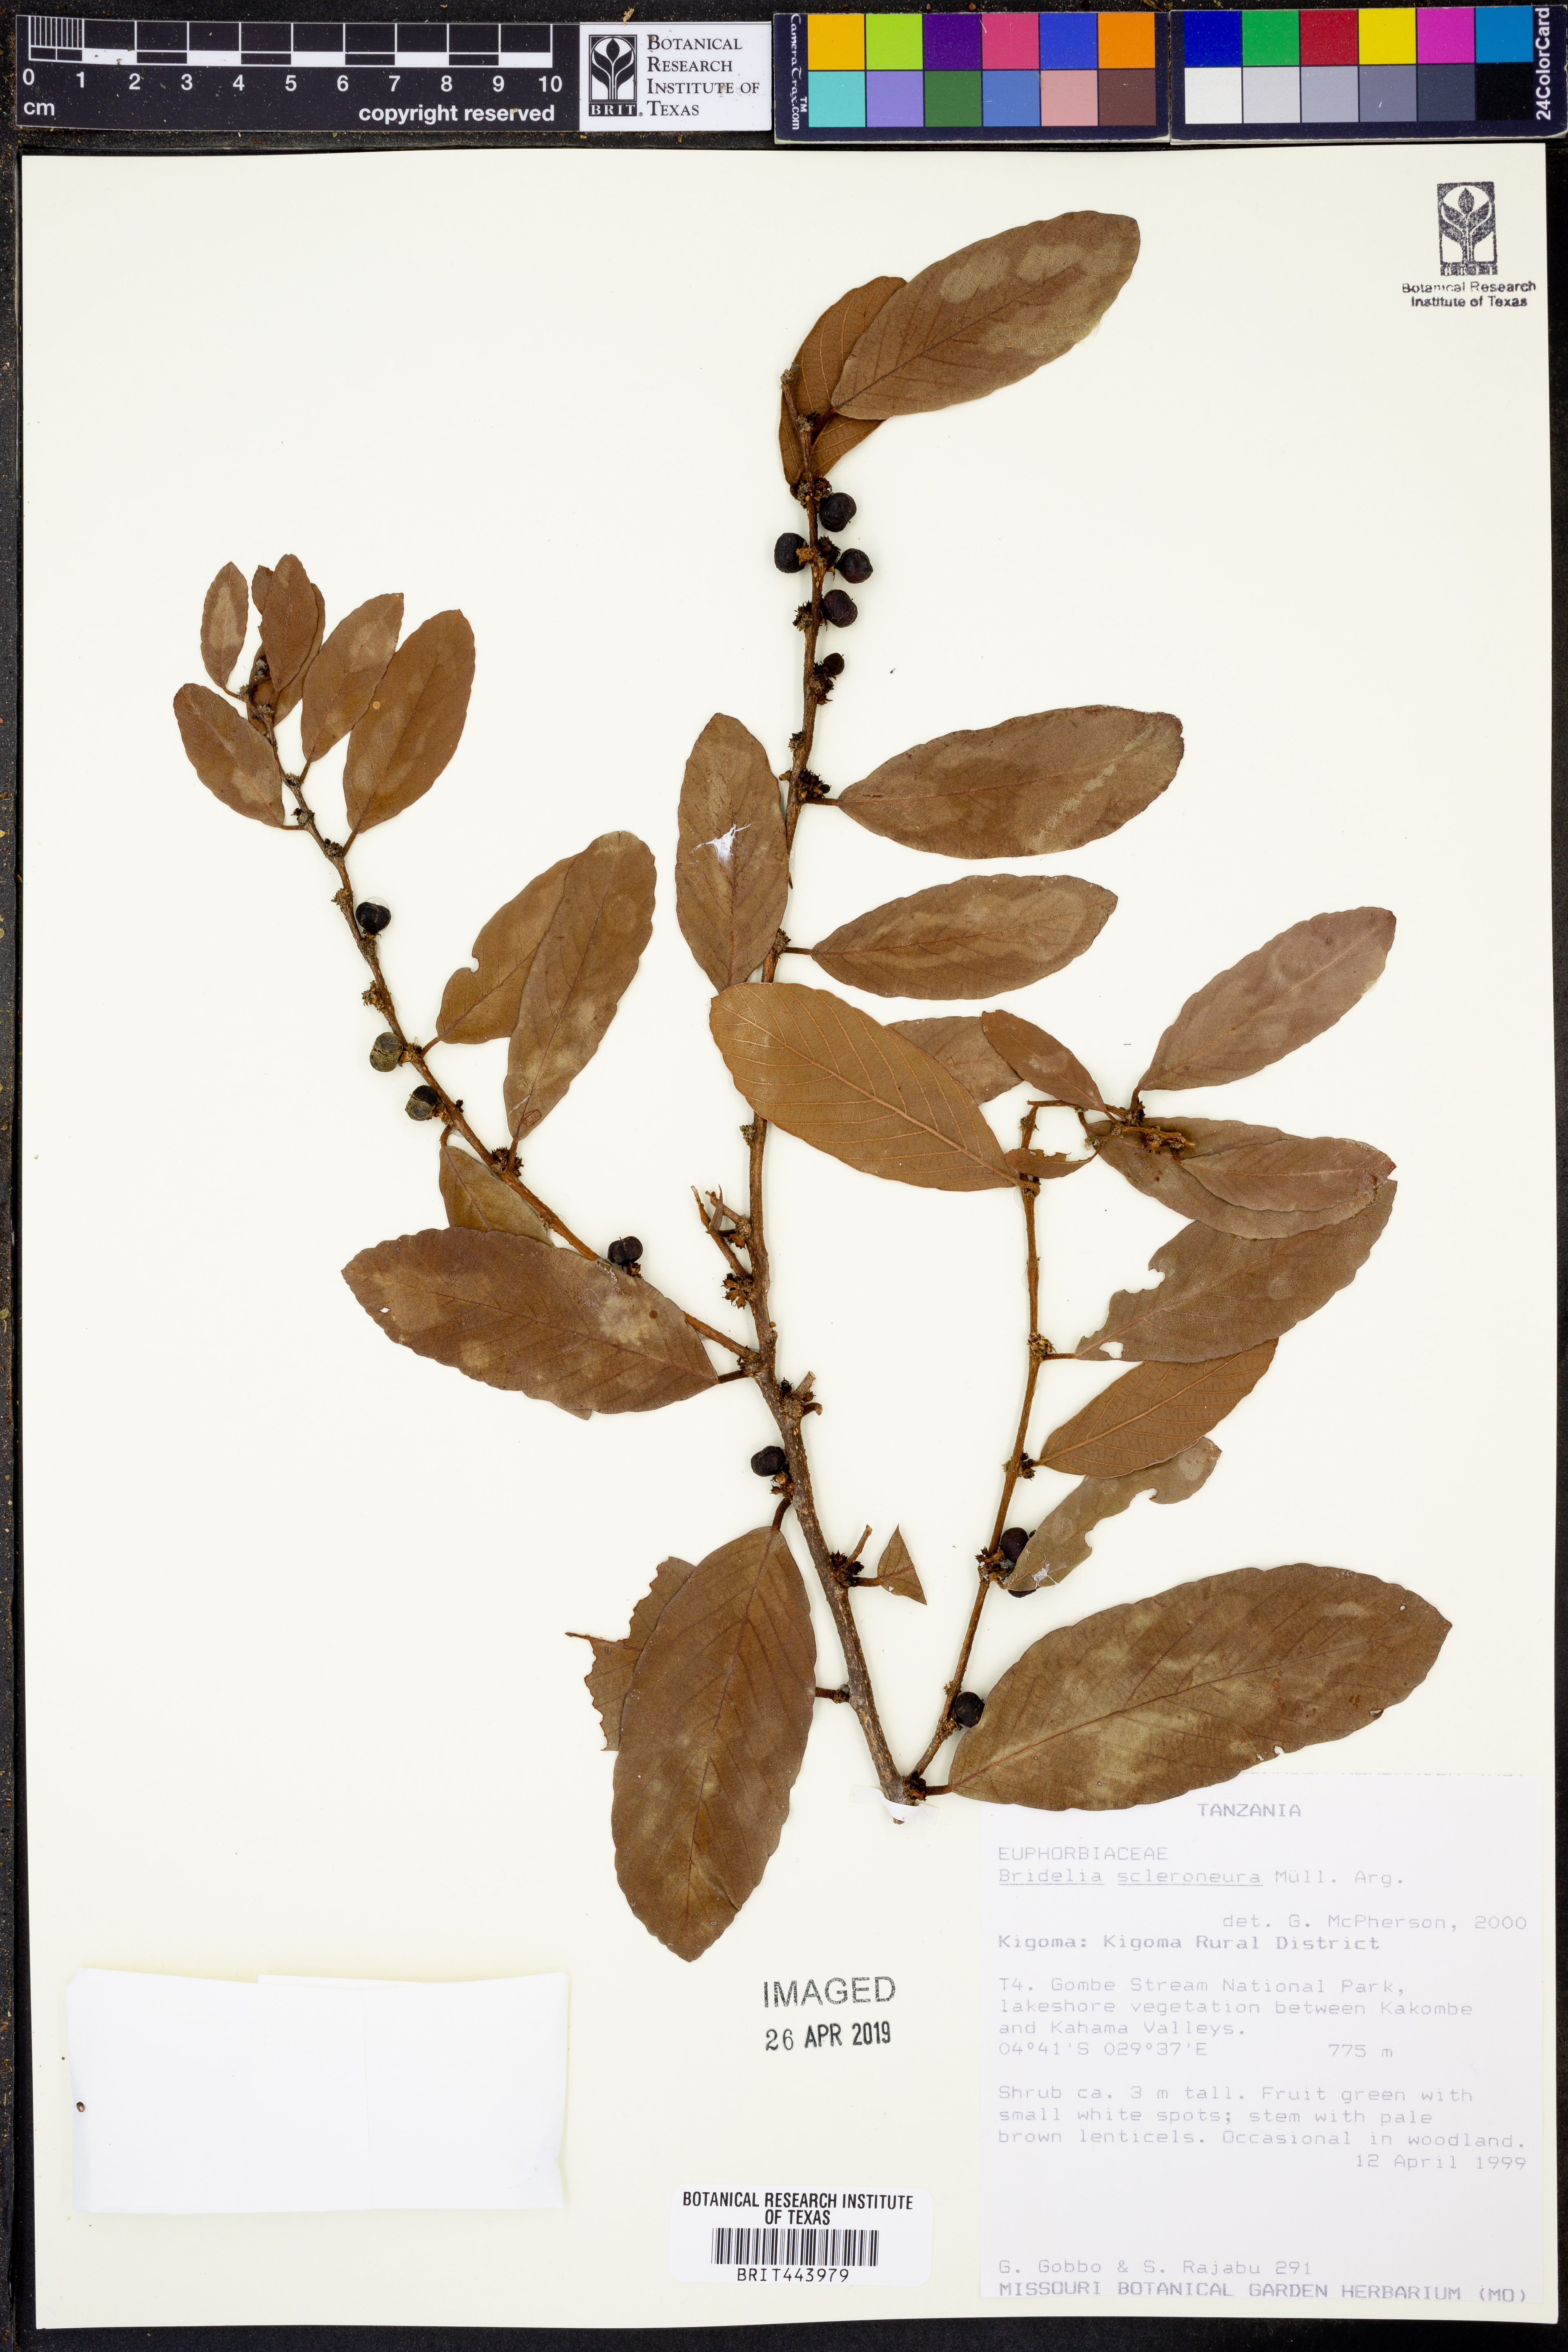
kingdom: Plantae
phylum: Tracheophyta
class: Magnoliopsida
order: Malpighiales
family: Phyllanthaceae
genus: Bridelia
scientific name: Bridelia scleroneura
